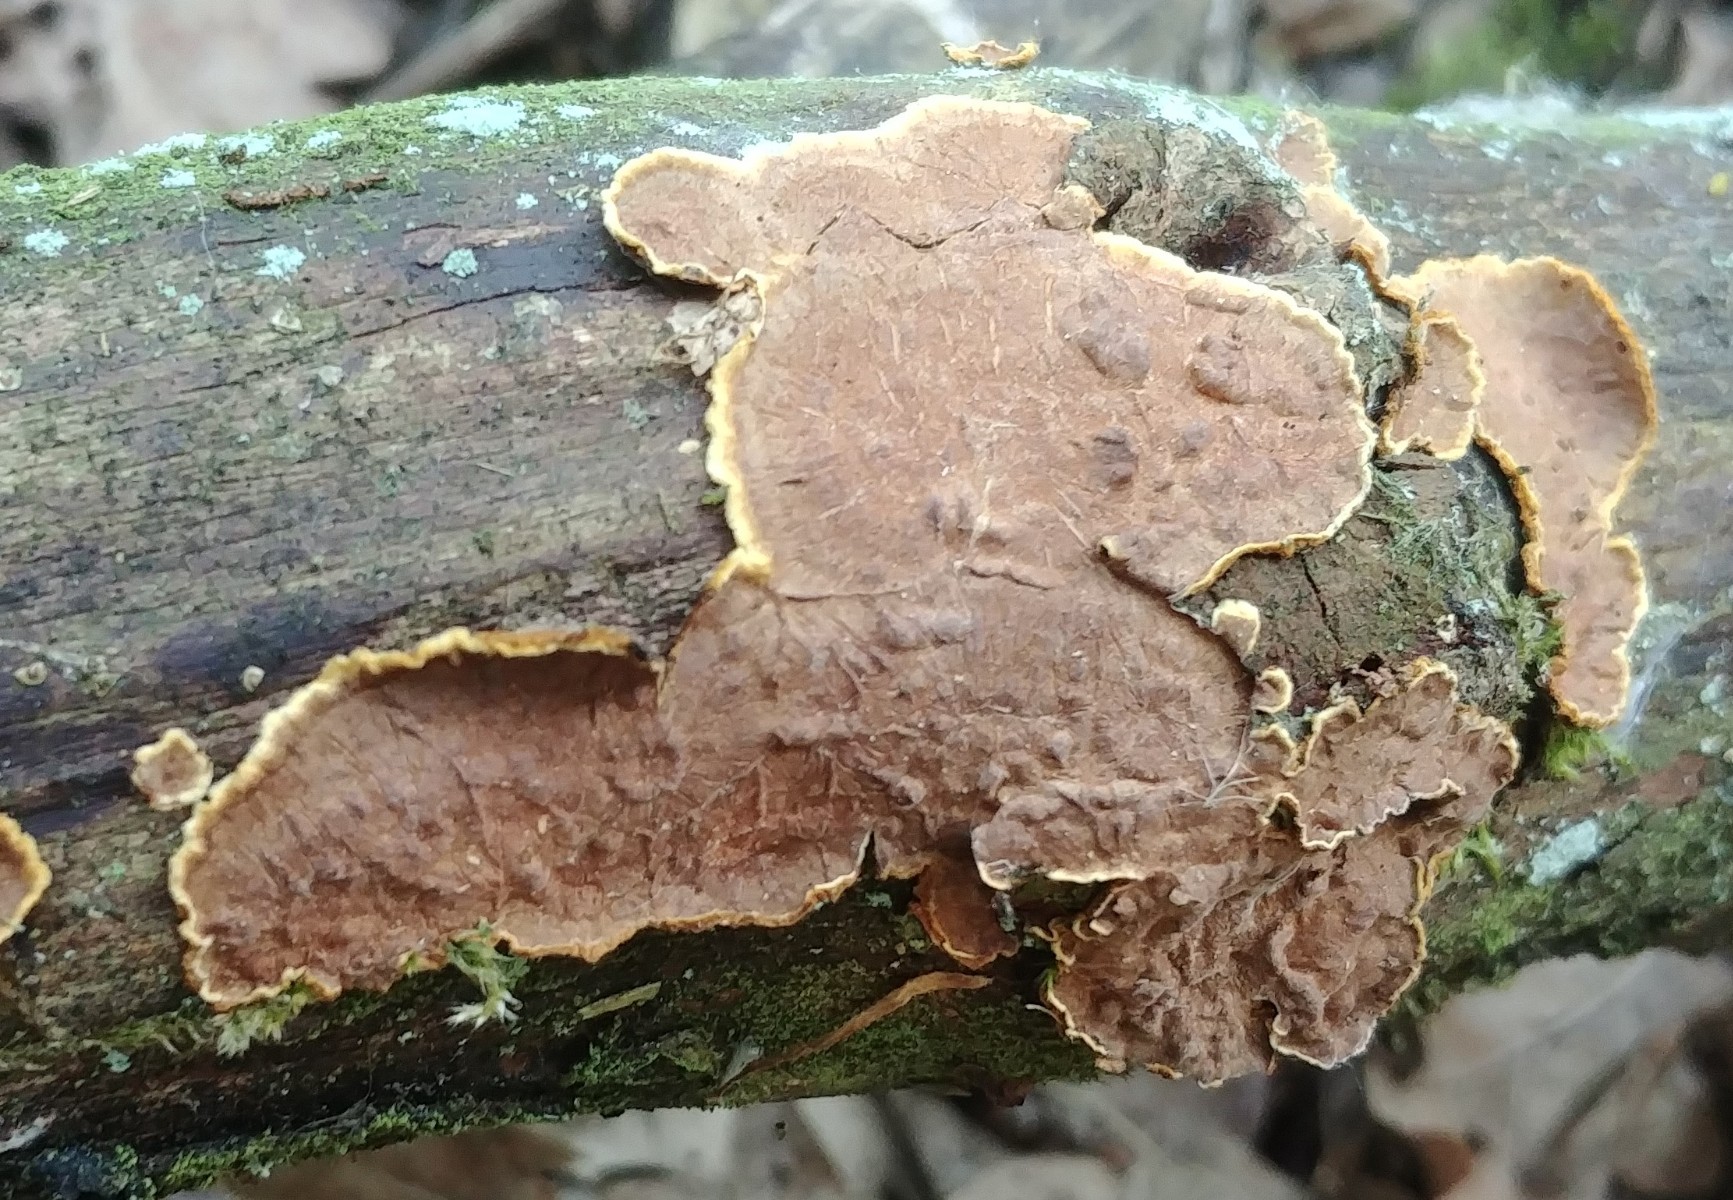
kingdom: Fungi
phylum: Basidiomycota
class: Agaricomycetes
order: Hymenochaetales
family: Hymenochaetaceae
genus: Hydnoporia
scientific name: Hydnoporia tabacina
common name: tobaksbrun ruslædersvamp
